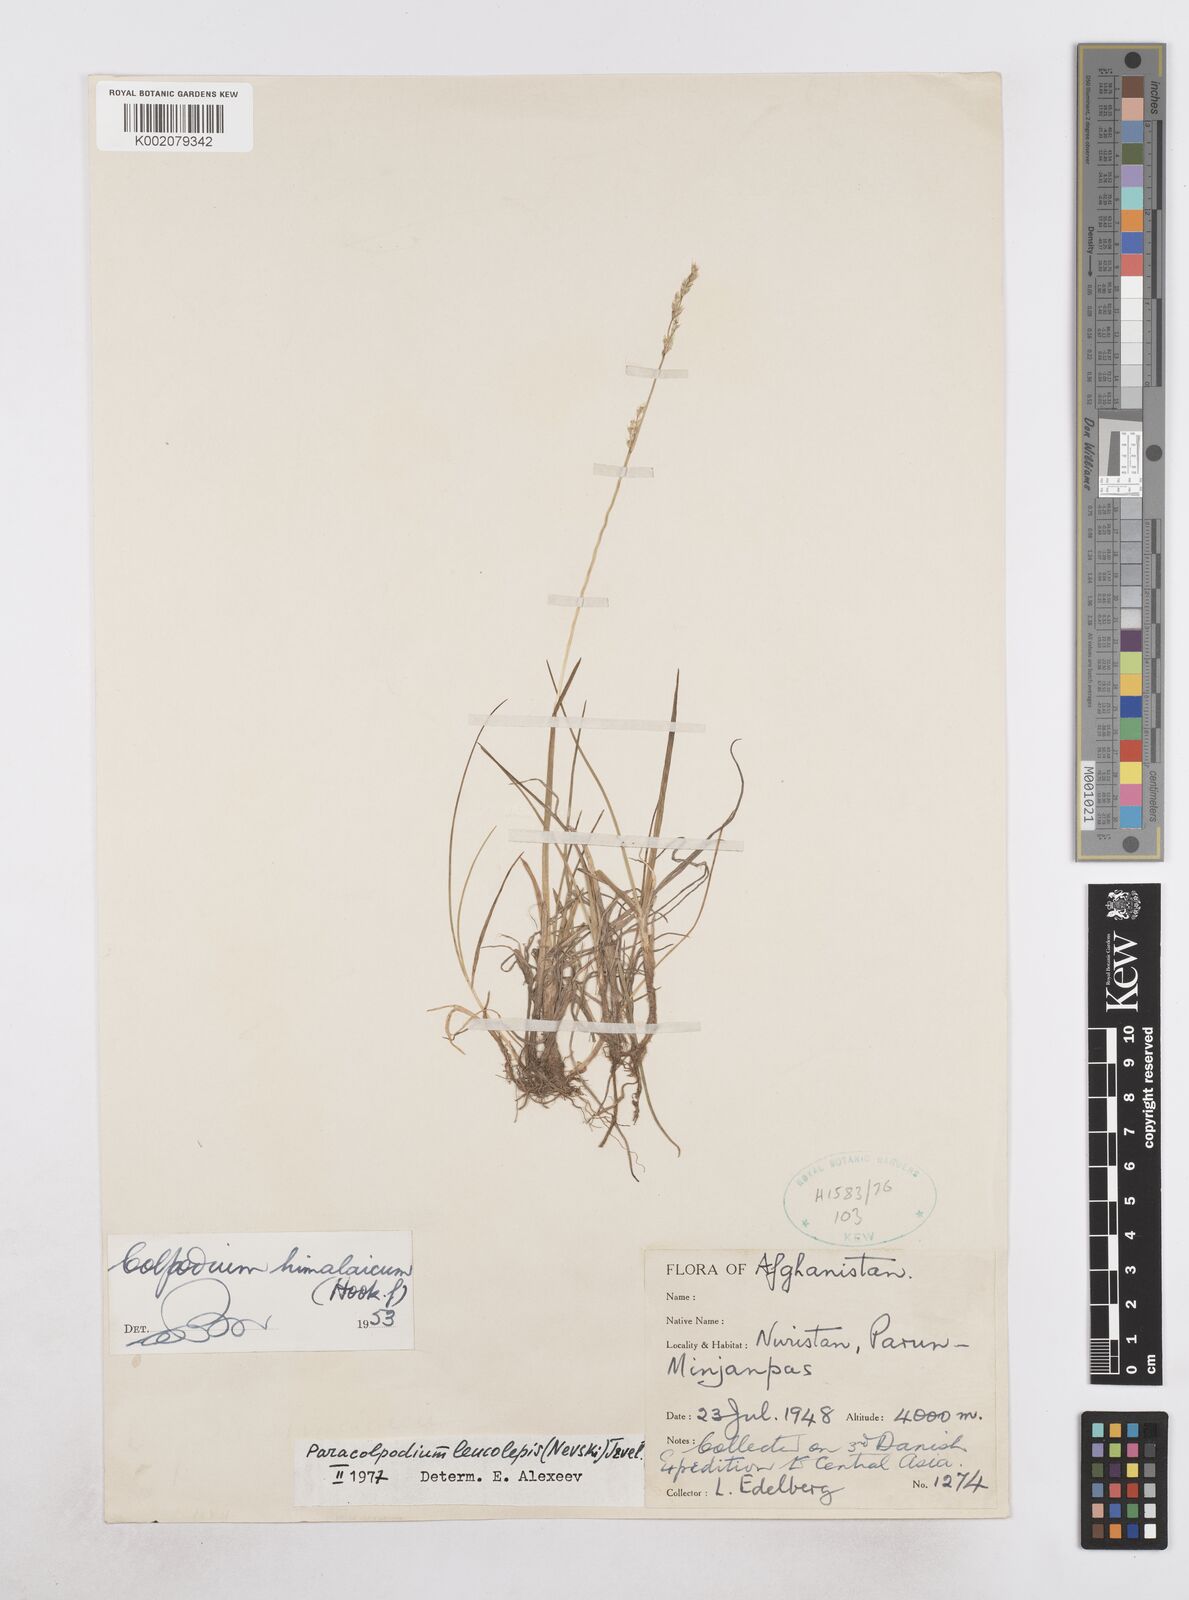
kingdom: Plantae
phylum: Tracheophyta
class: Liliopsida
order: Poales
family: Poaceae
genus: Paracolpodium
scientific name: Paracolpodium altaicum
